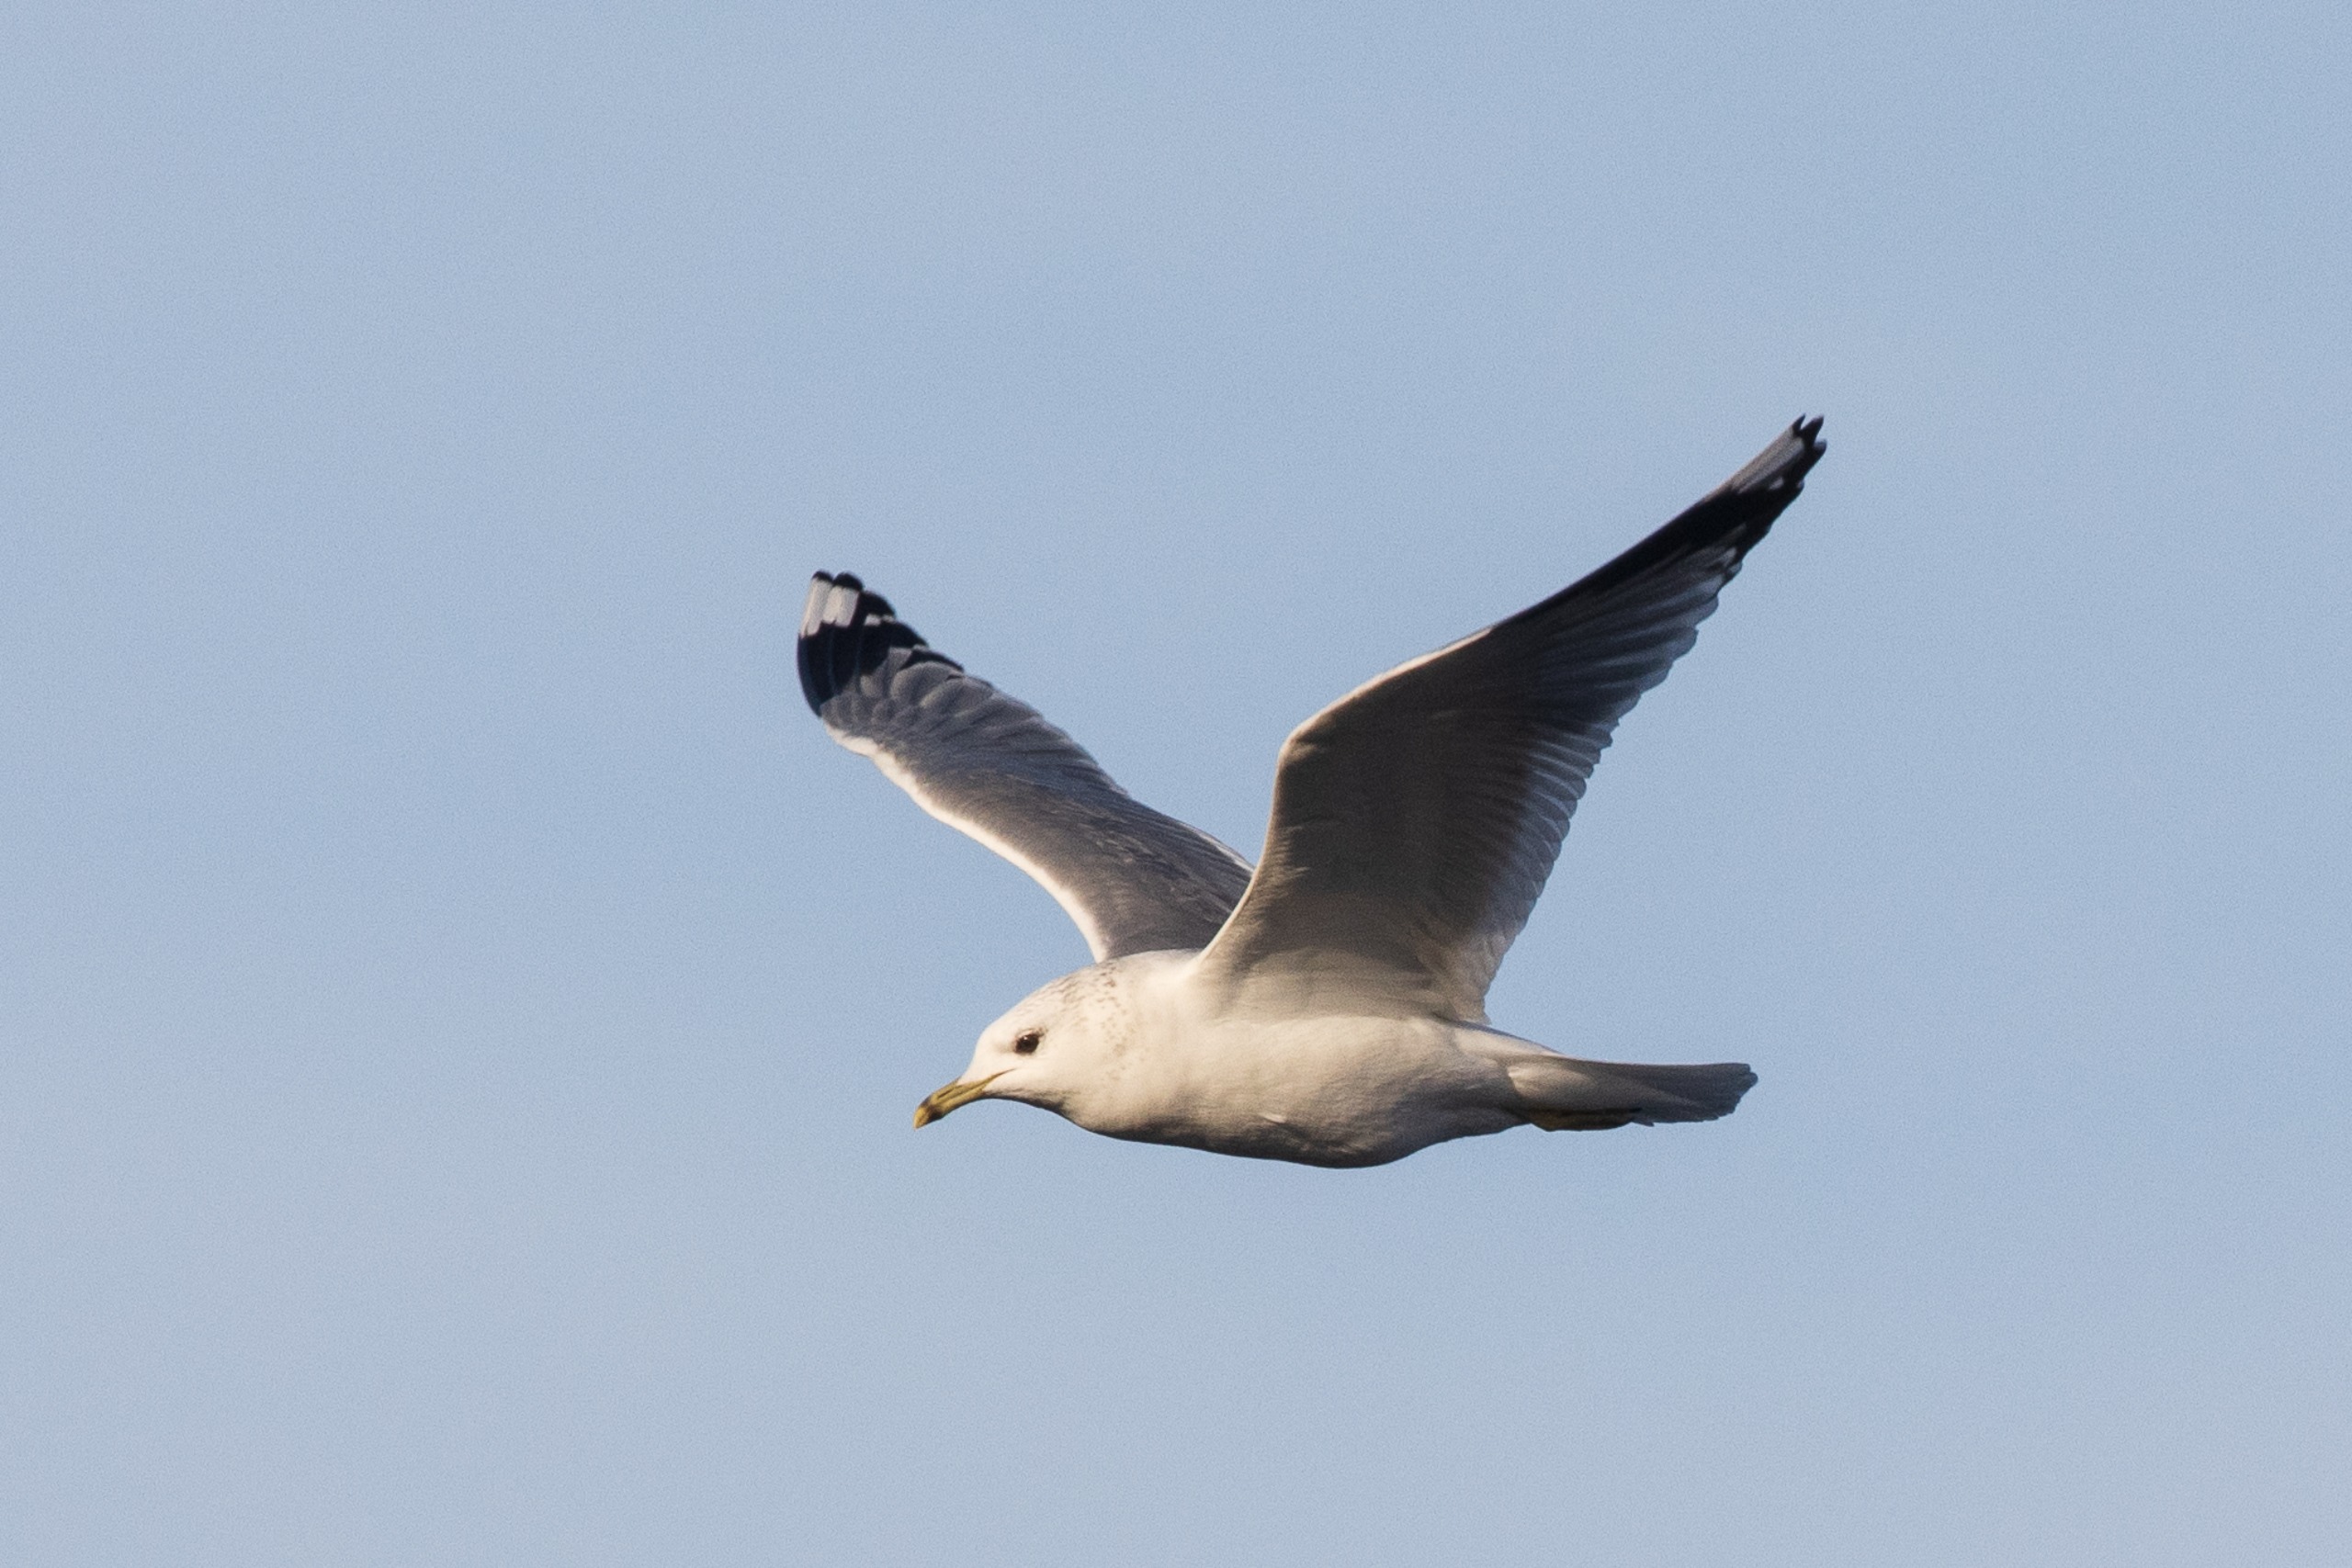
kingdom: Animalia
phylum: Chordata
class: Aves
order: Charadriiformes
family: Laridae
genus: Larus
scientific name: Larus canus
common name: Stormmåge
